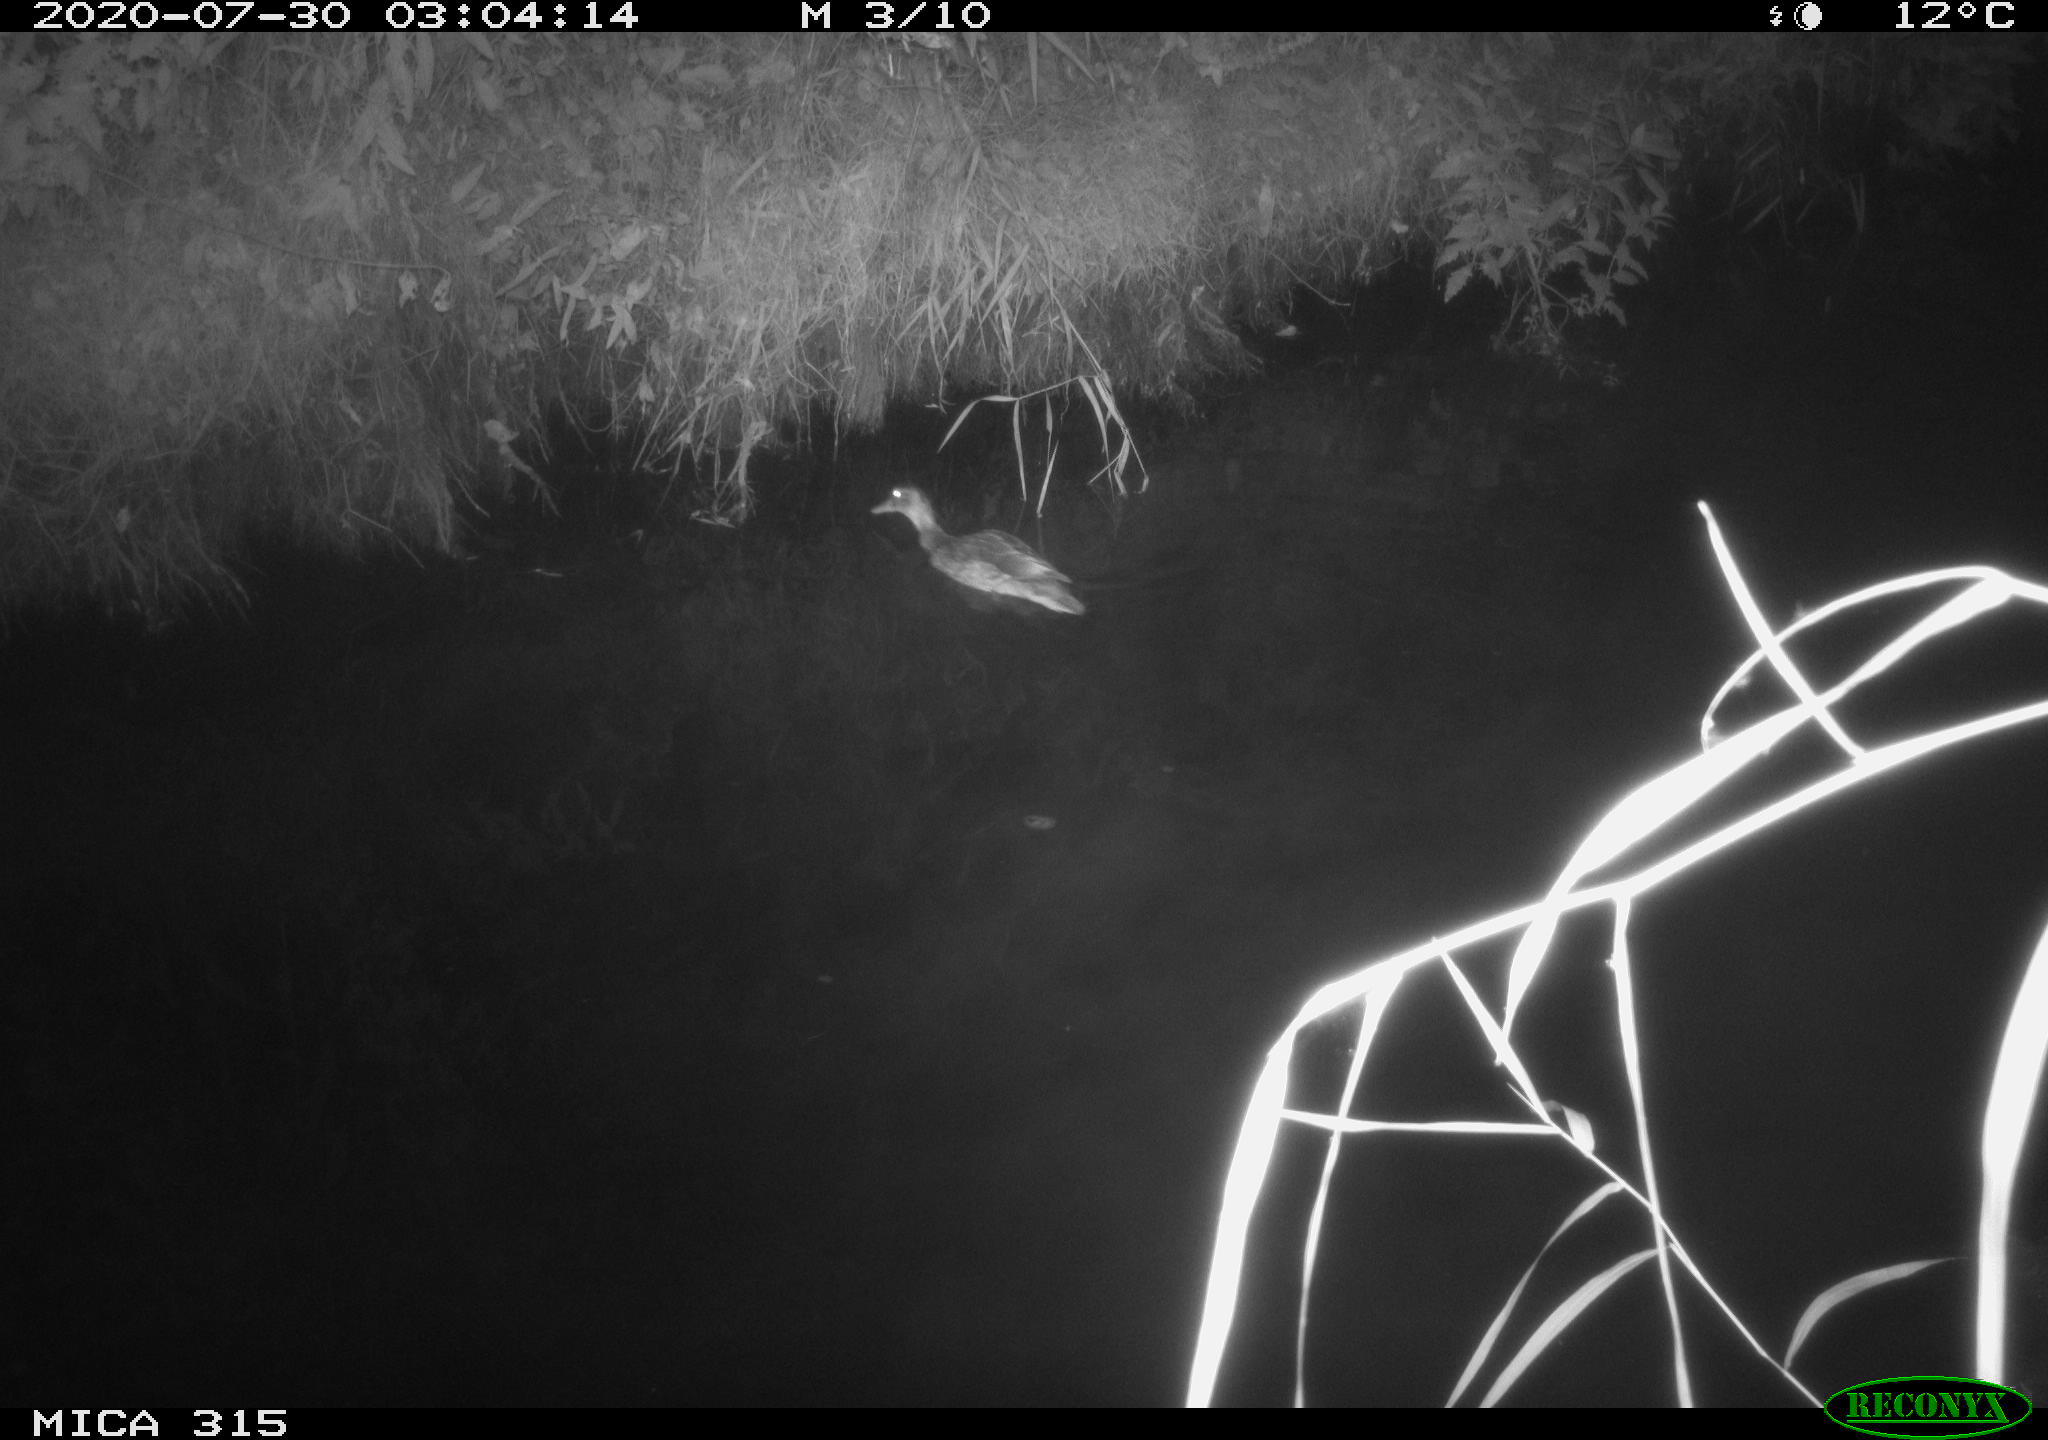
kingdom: Animalia
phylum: Chordata
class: Aves
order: Anseriformes
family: Anatidae
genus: Anas
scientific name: Anas platyrhynchos
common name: Mallard
